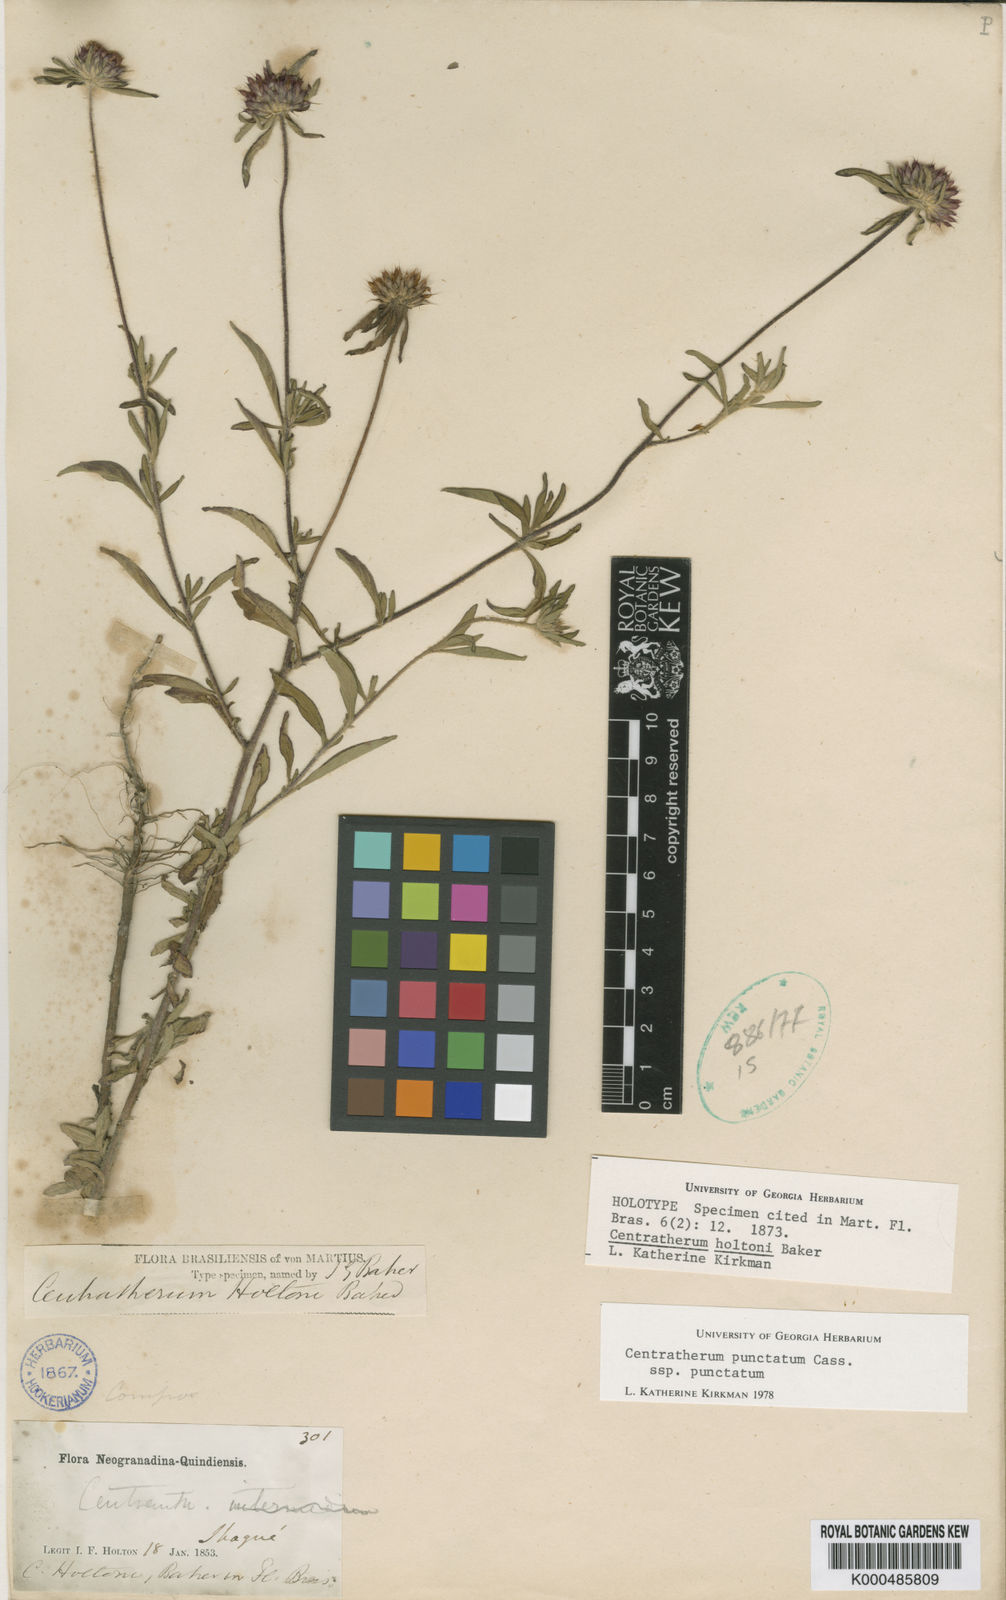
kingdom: Plantae
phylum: Tracheophyta
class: Magnoliopsida
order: Asterales
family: Asteraceae
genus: Centratherum
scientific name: Centratherum punctatum
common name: Larkdaisy
